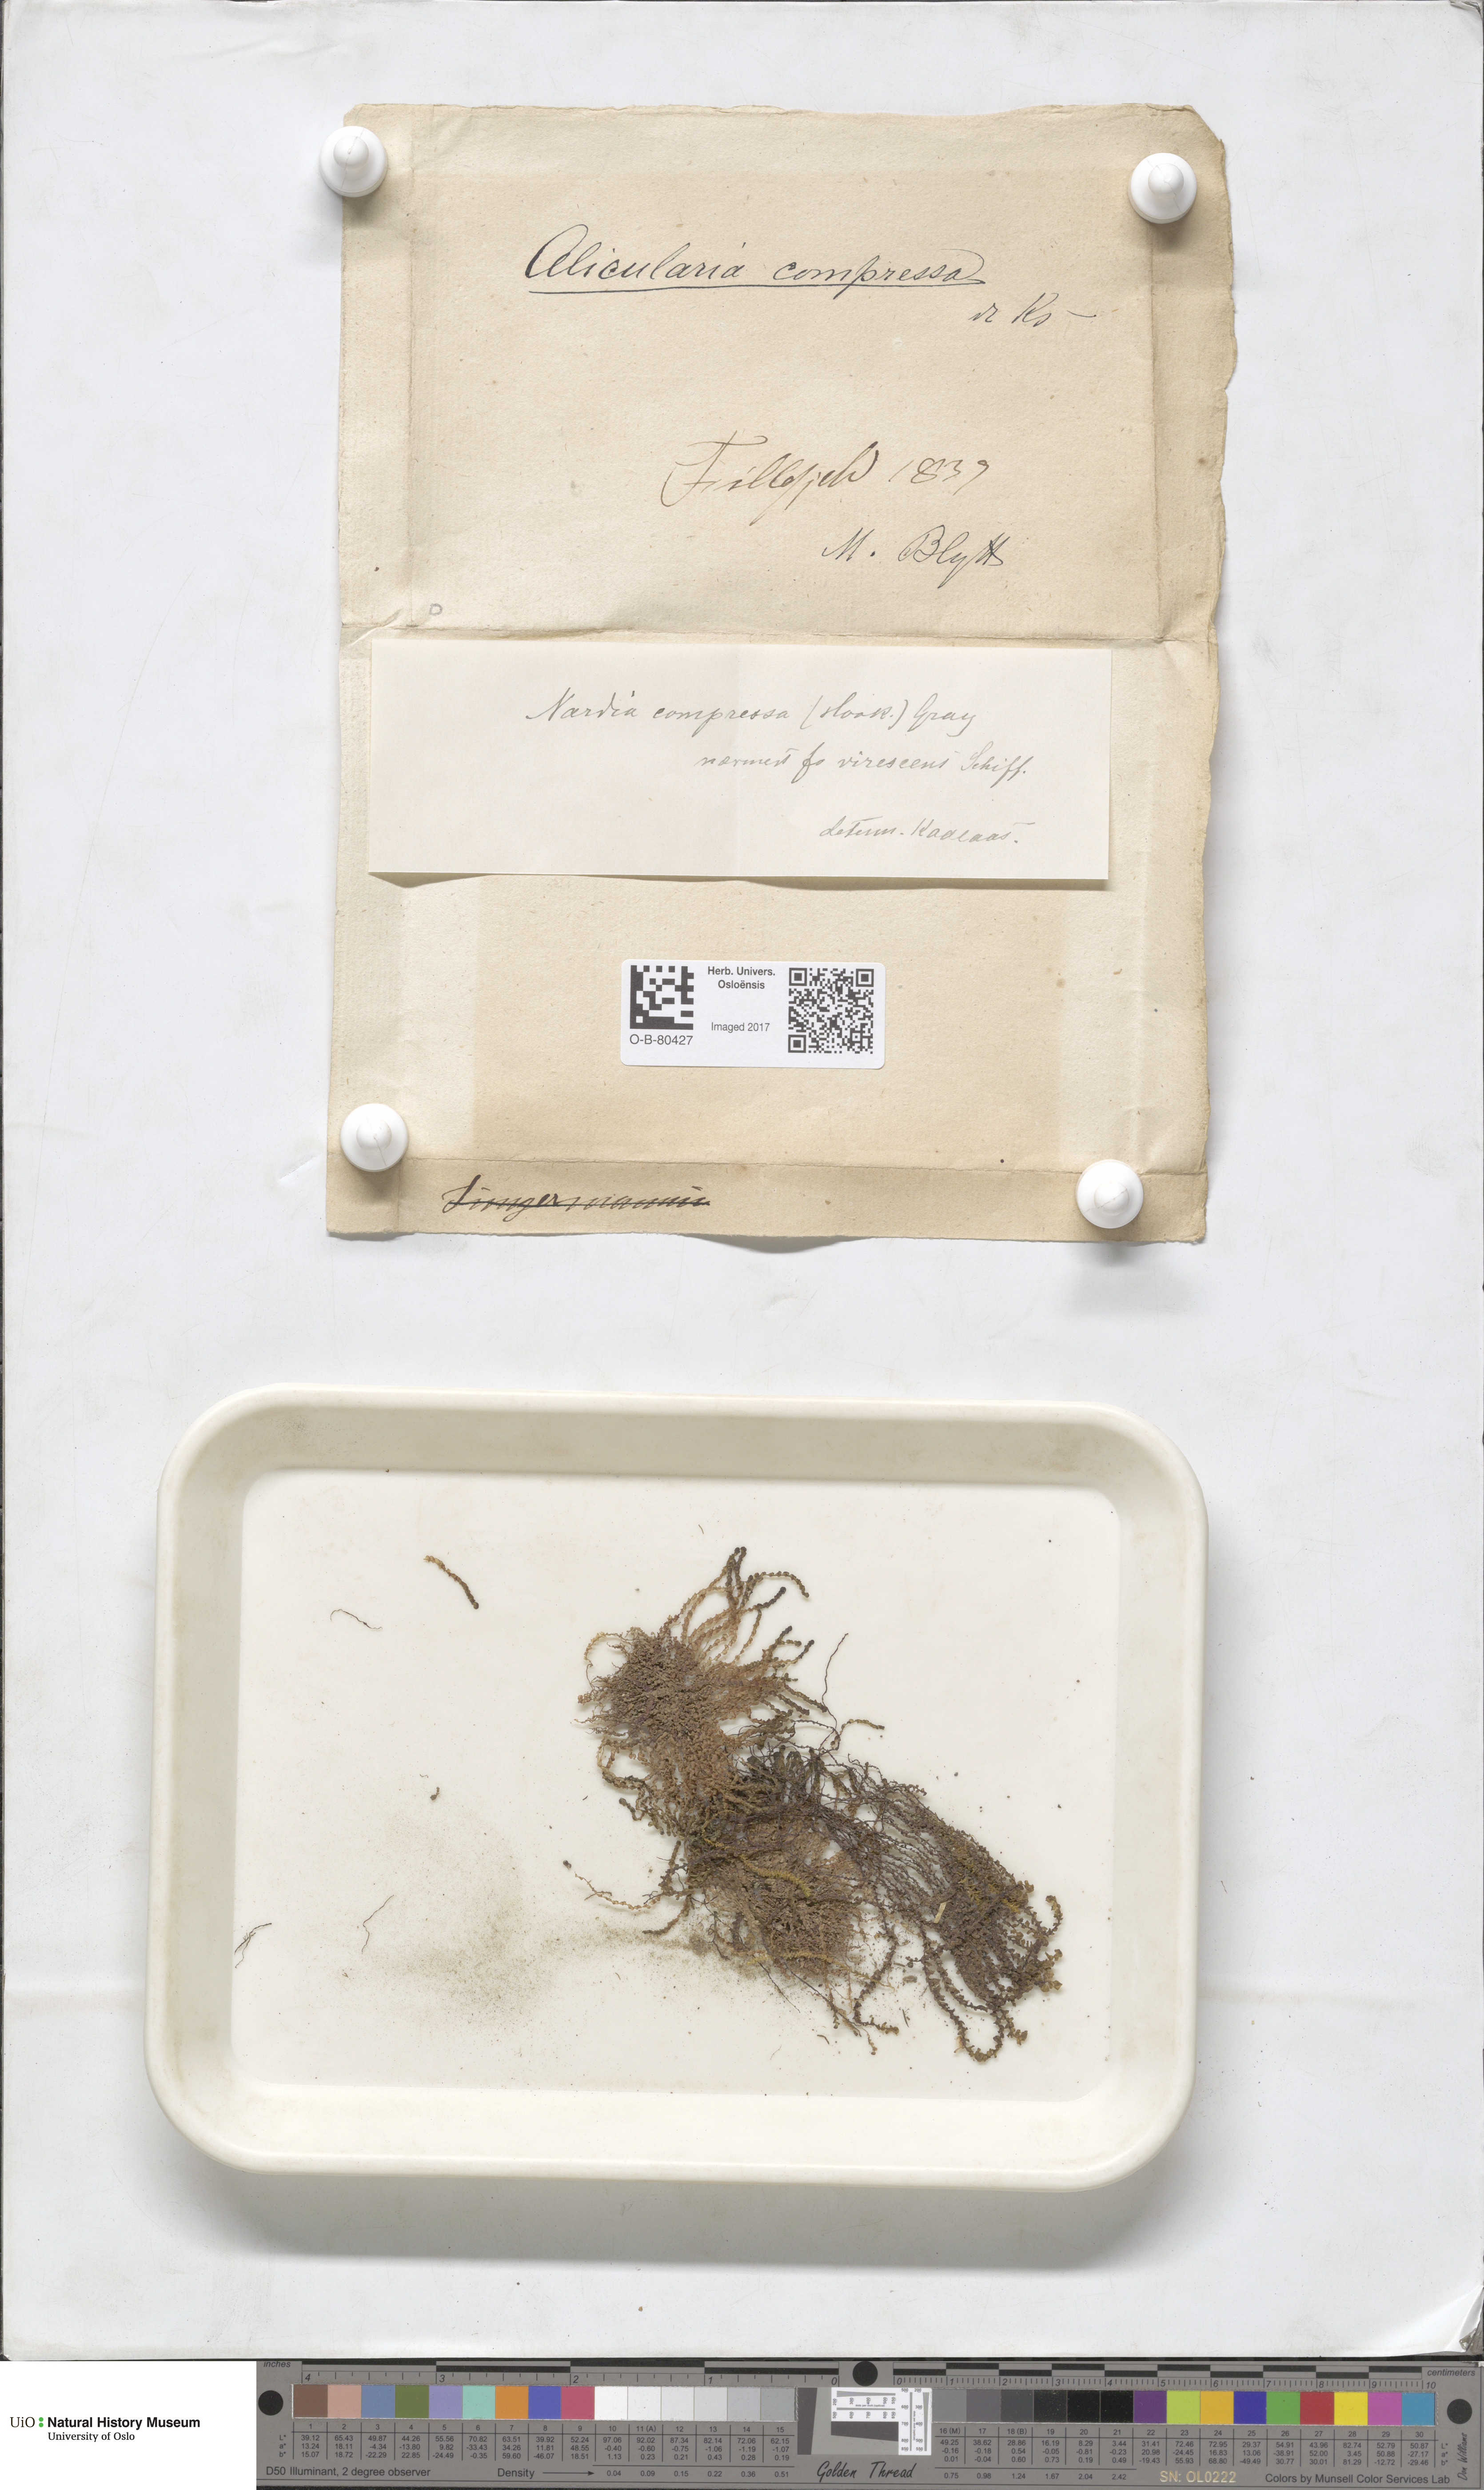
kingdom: Plantae
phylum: Marchantiophyta
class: Jungermanniopsida
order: Jungermanniales
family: Gymnomitriaceae
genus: Nardia
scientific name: Nardia compressa
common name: Compressed flapwort
